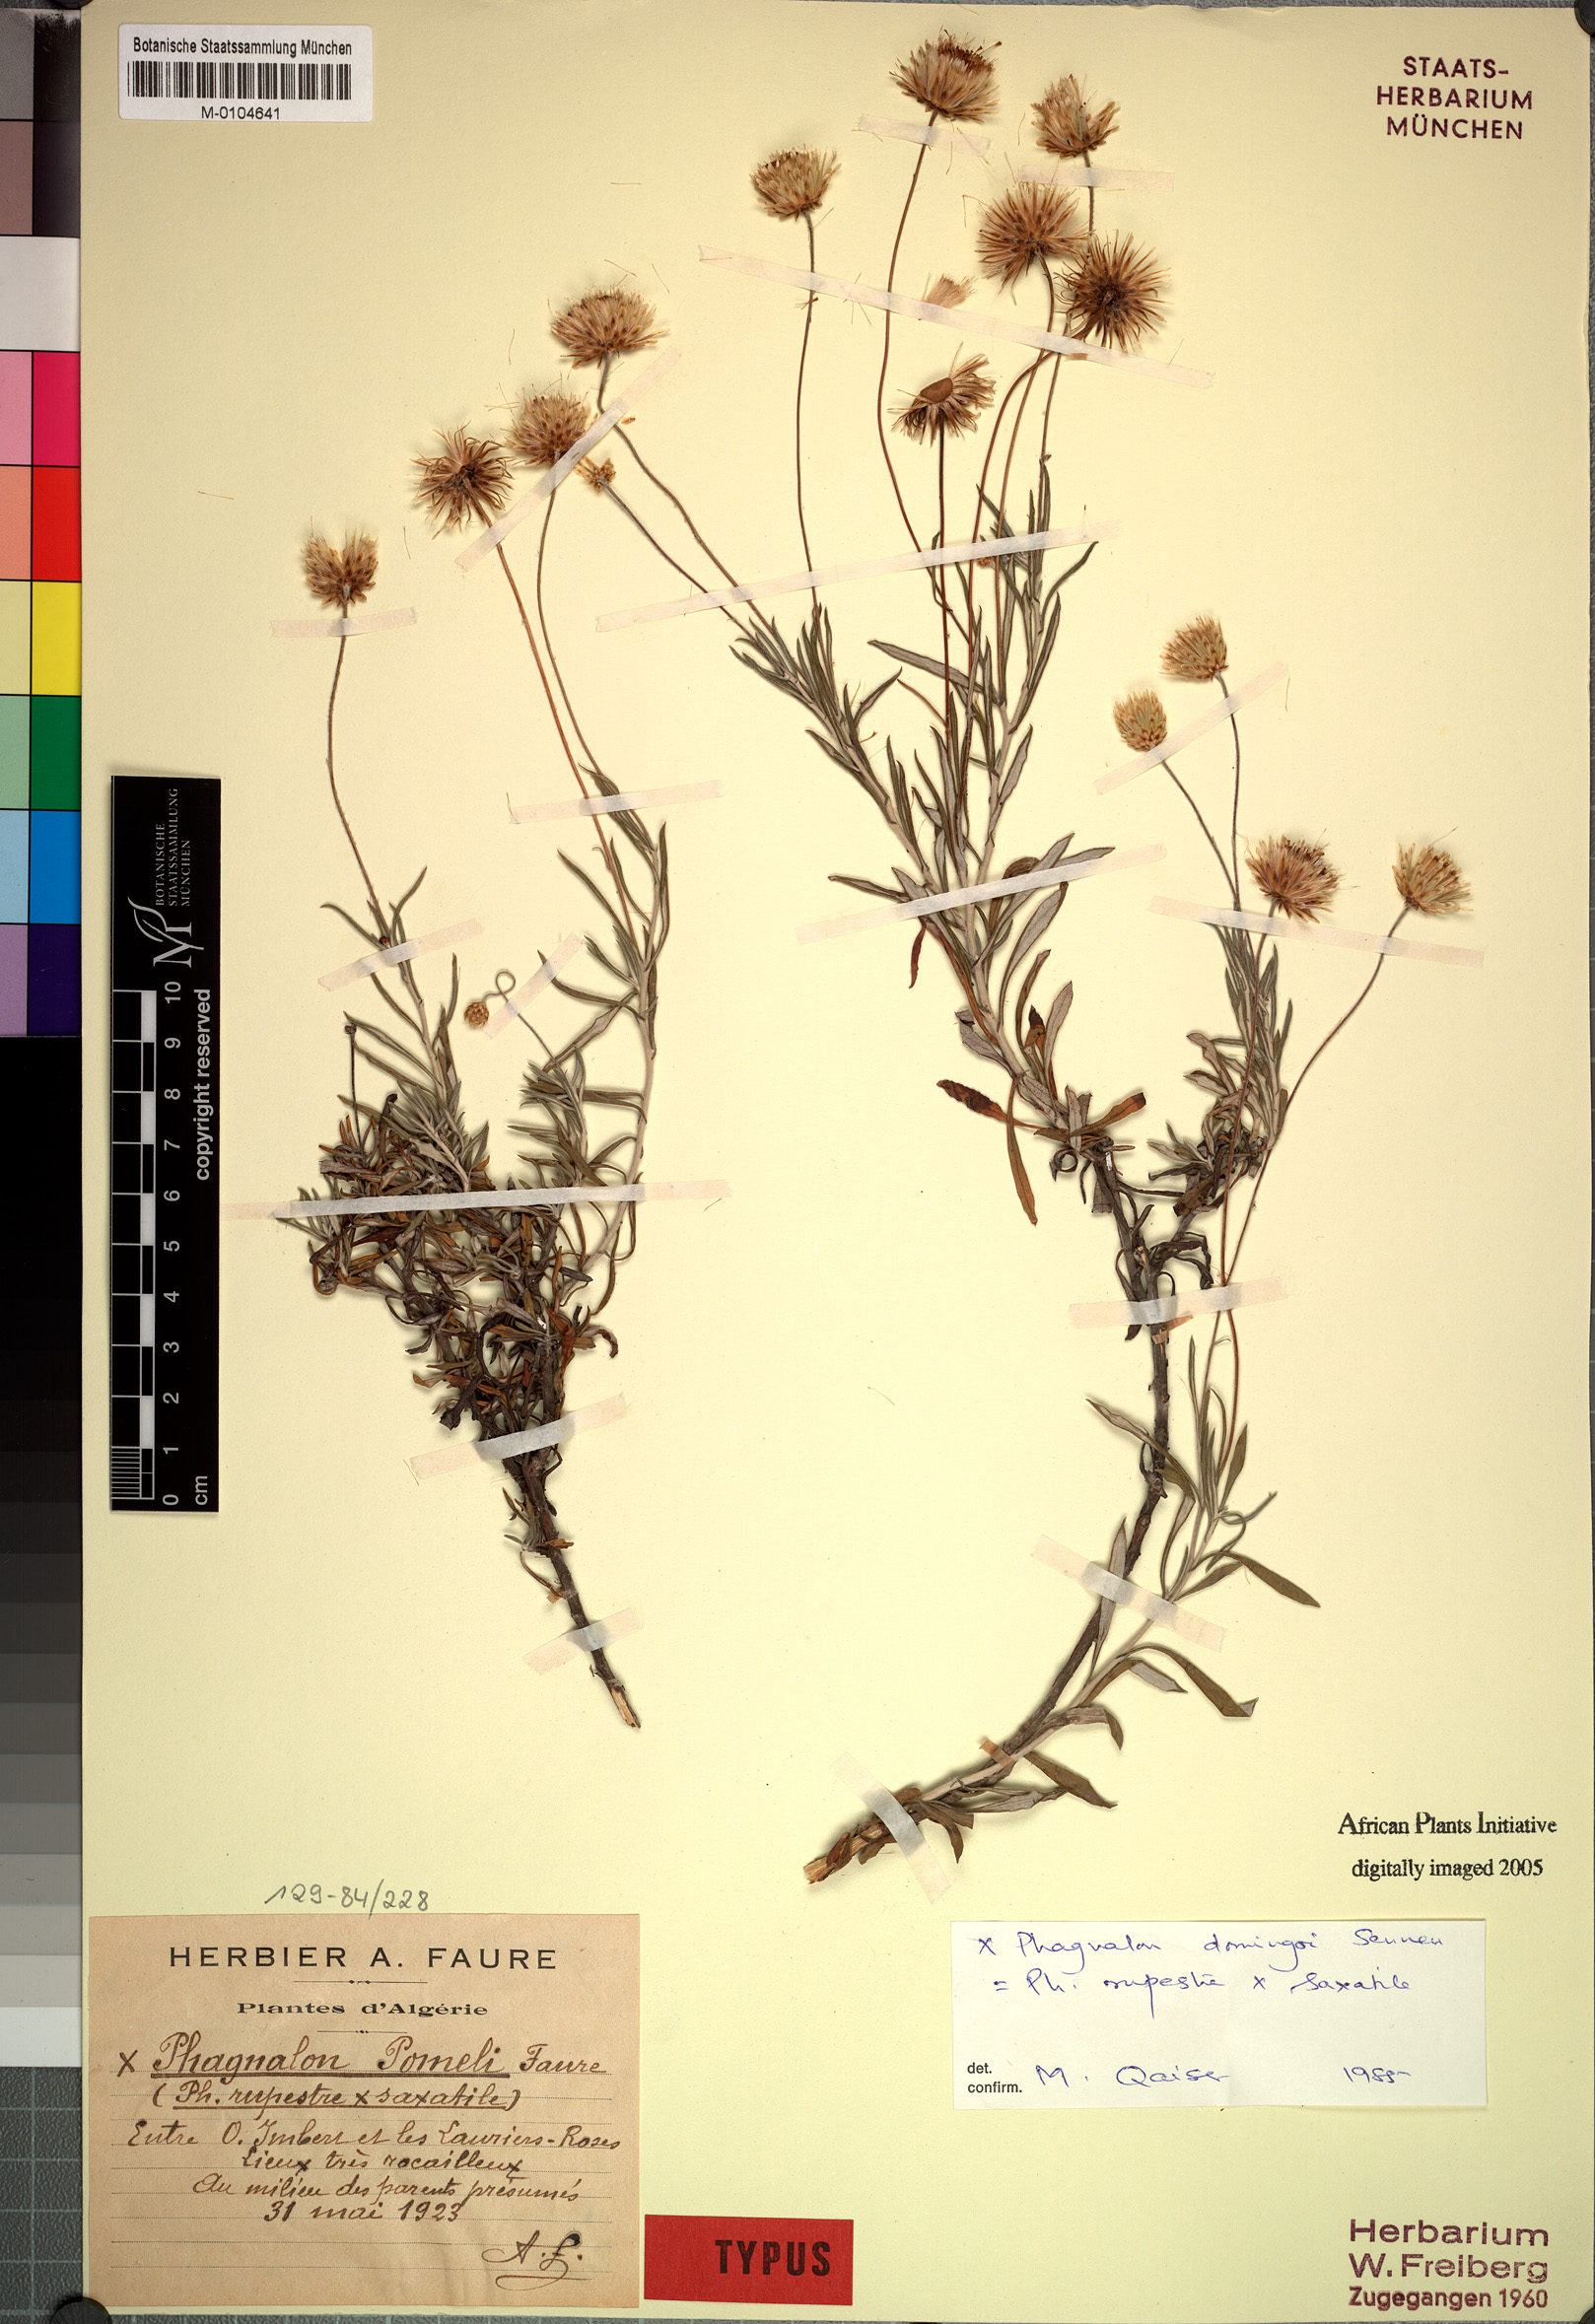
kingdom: Plantae
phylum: Tracheophyta
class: Magnoliopsida
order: Asterales
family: Asteraceae
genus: Phagnalon
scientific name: Phagnalon murbeckii
